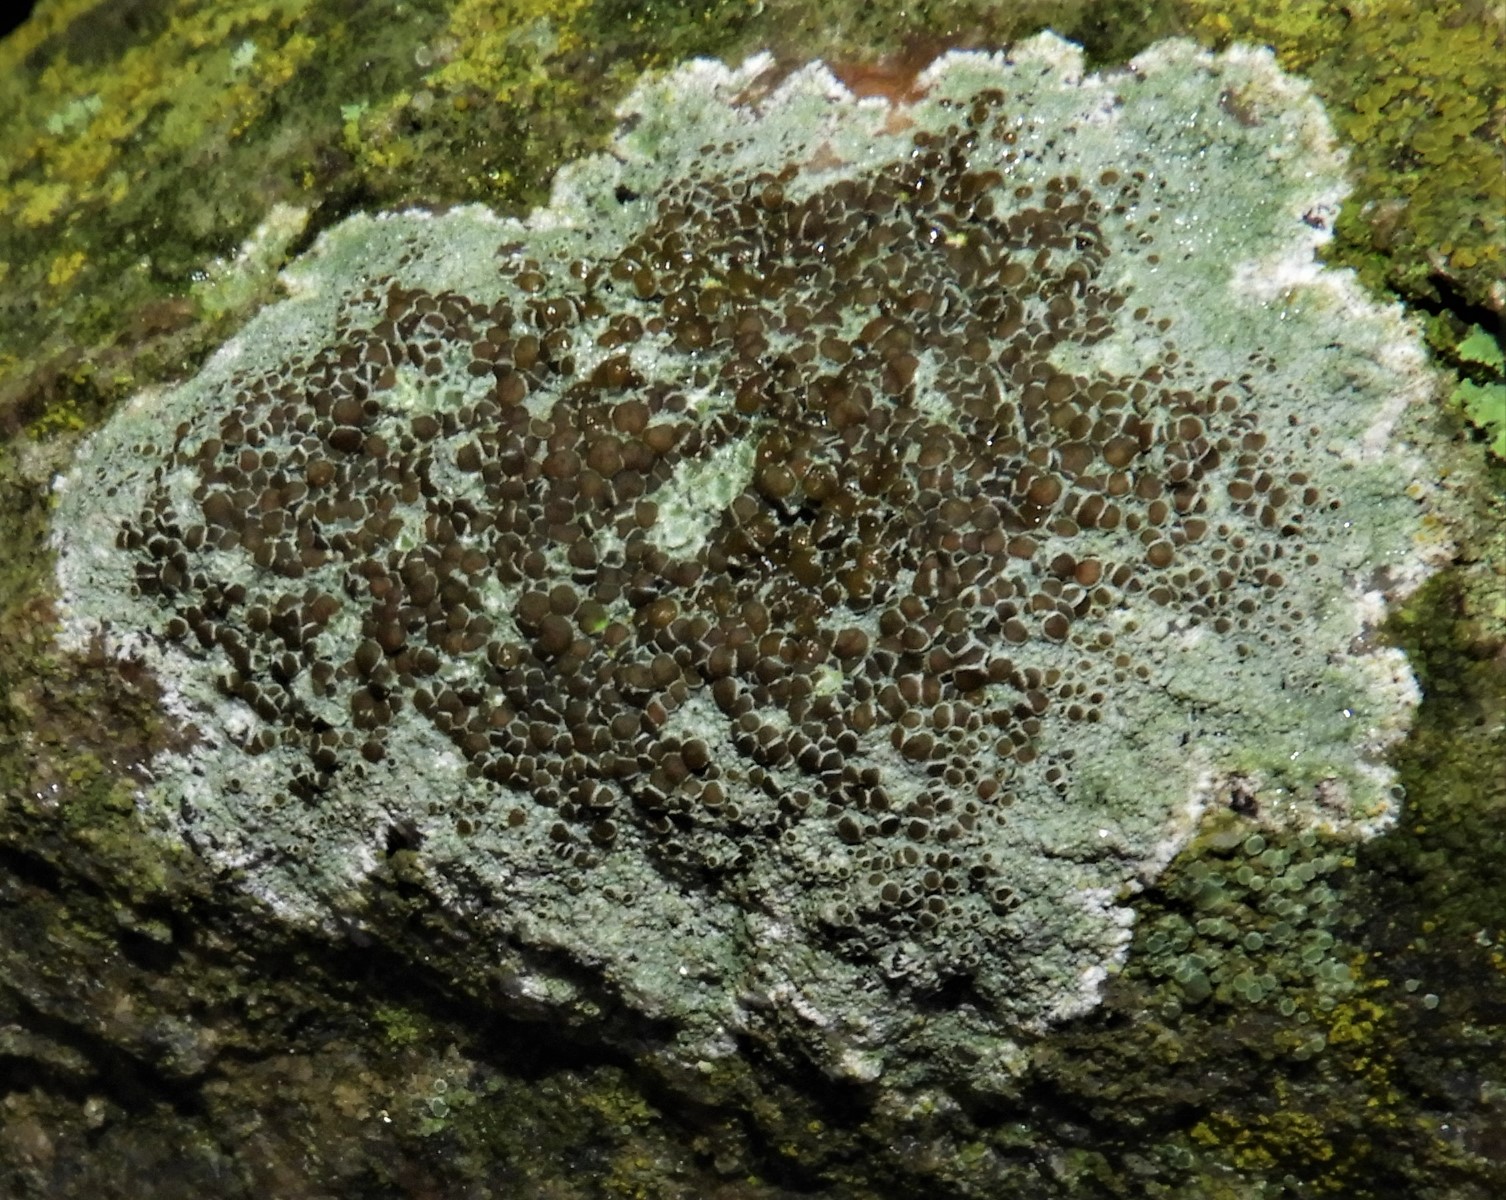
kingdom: Fungi
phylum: Ascomycota
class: Lecanoromycetes
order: Lecanorales
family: Lecanoraceae
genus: Lecanora
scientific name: Lecanora campestris
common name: mur-kantskivelav
